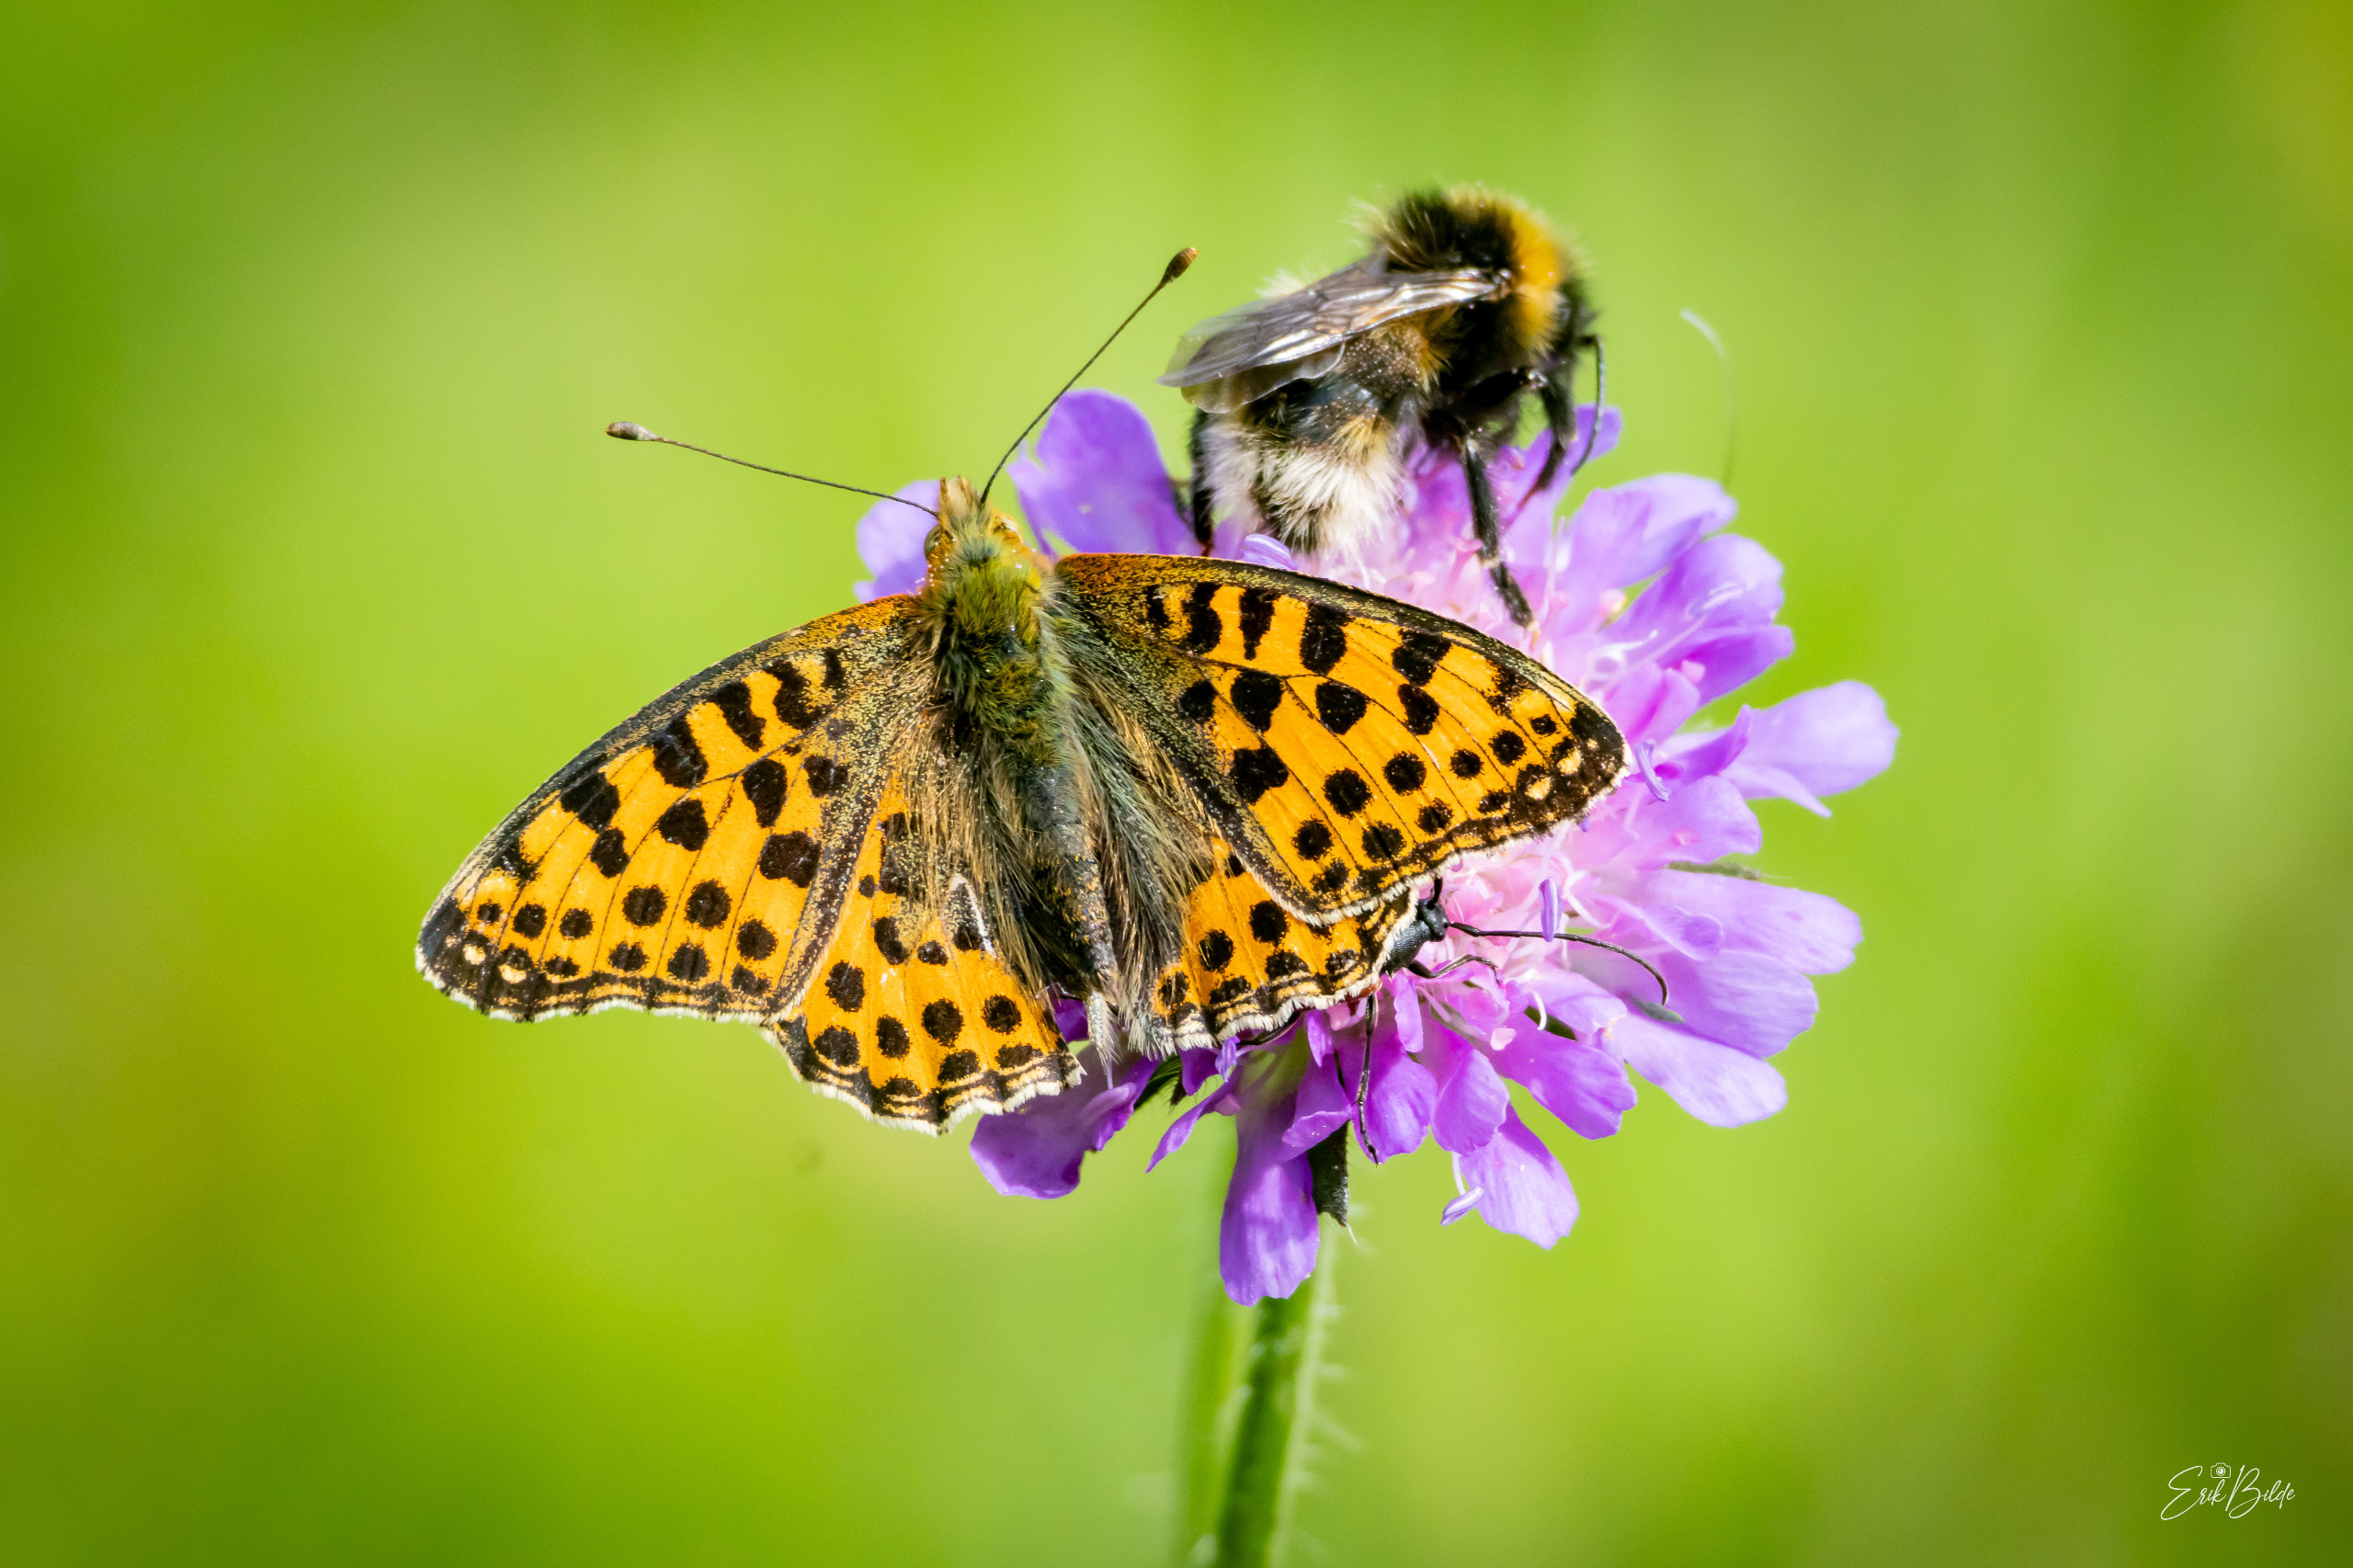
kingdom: Animalia
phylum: Arthropoda
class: Insecta
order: Lepidoptera
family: Nymphalidae
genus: Issoria
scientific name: Issoria lathonia
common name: Storplettet perlemorsommerfugl
